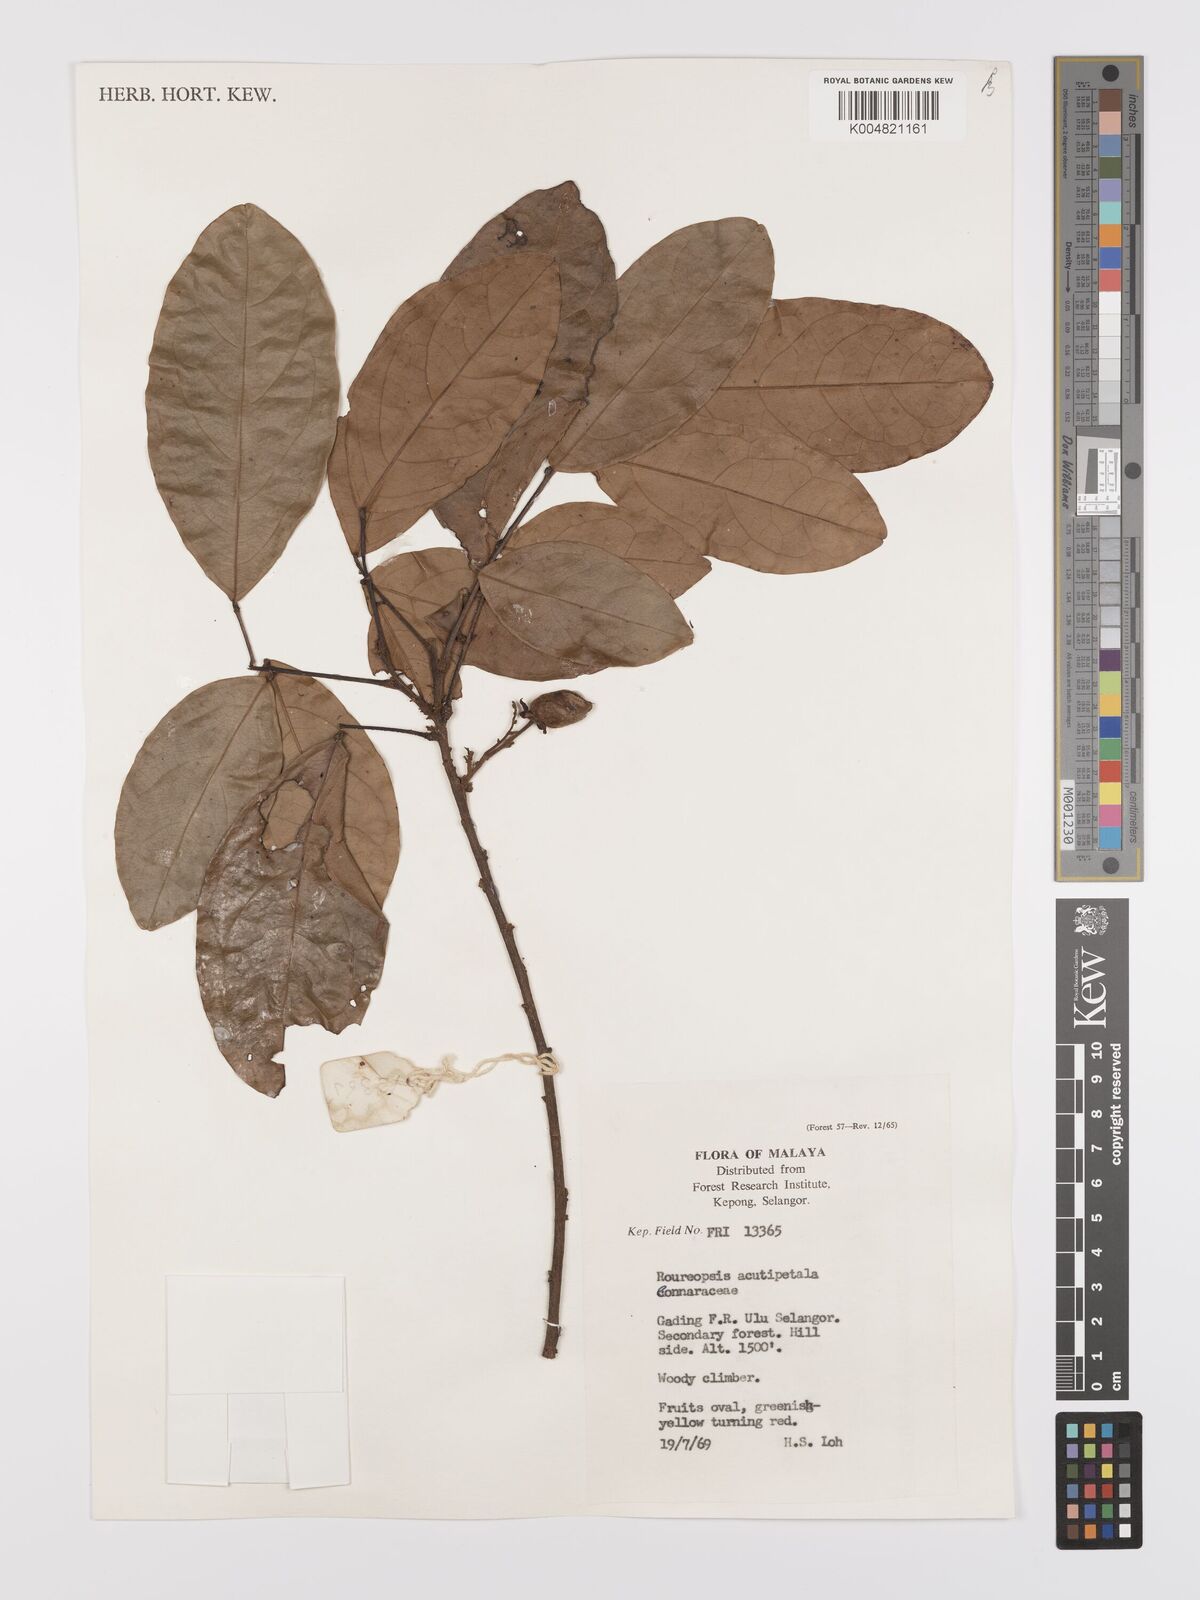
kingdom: Plantae
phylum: Tracheophyta
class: Magnoliopsida
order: Oxalidales
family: Connaraceae
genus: Rourea
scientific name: Rourea acutipetala
